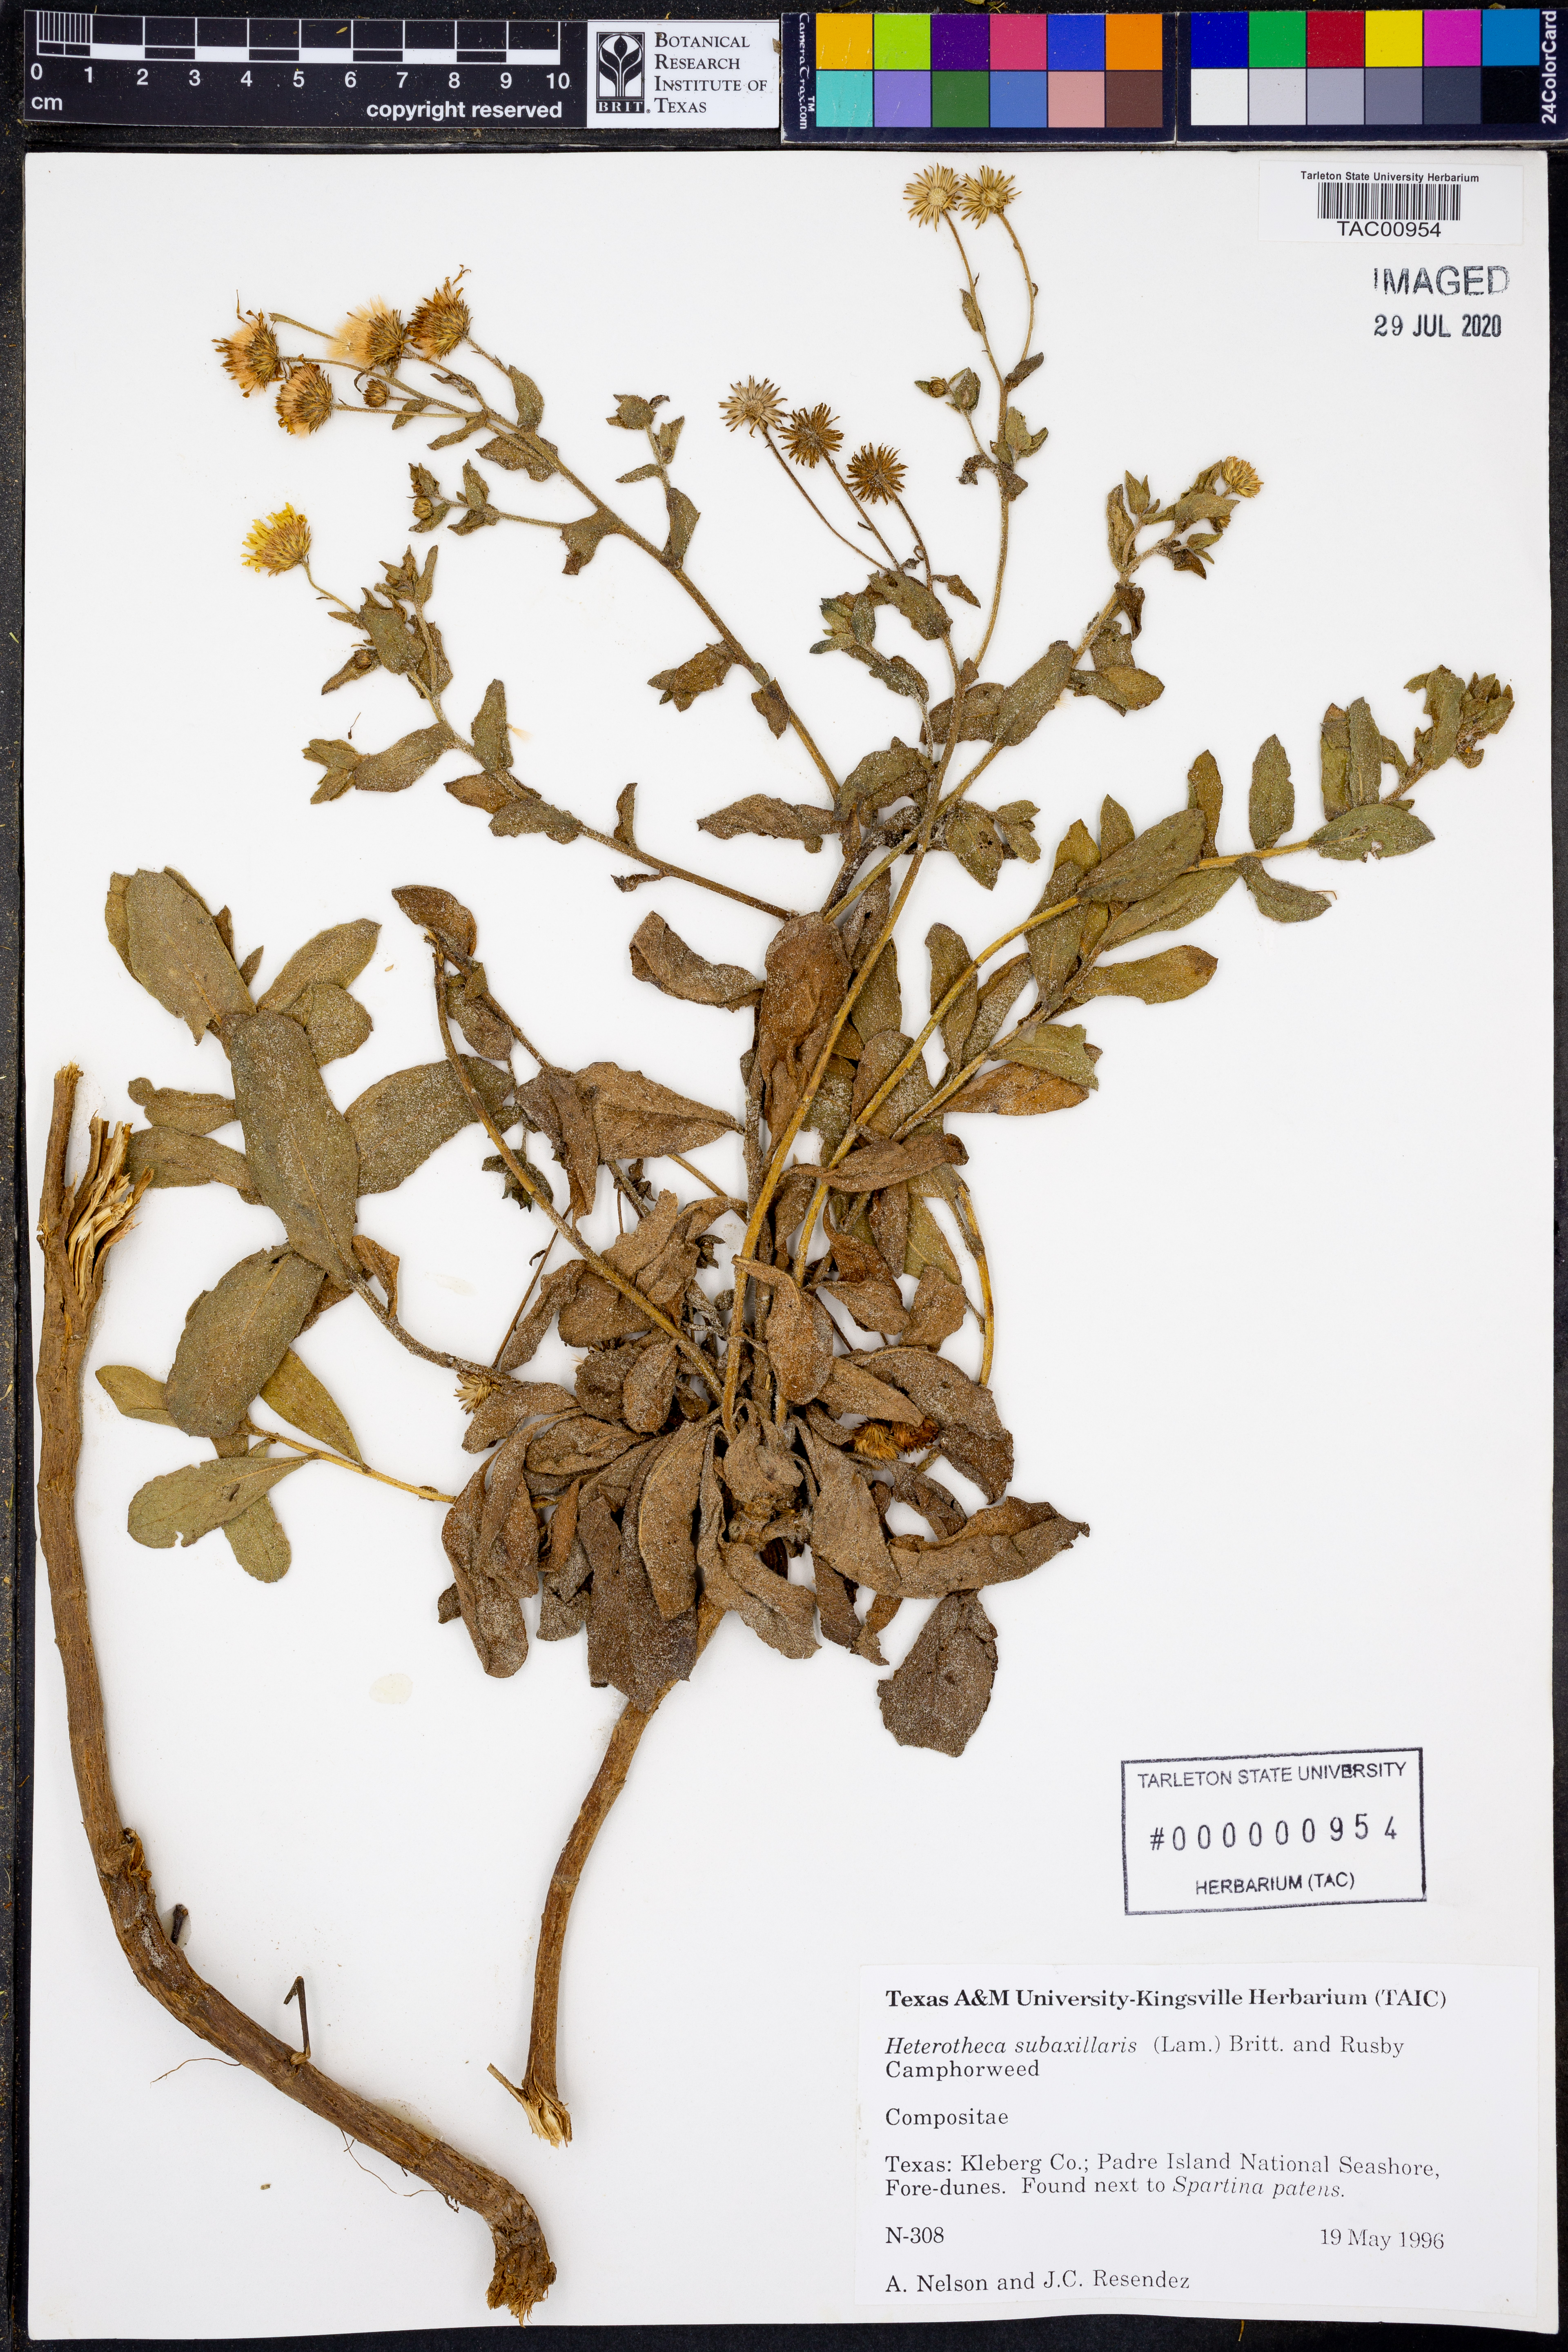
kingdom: Plantae
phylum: Tracheophyta
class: Magnoliopsida
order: Asterales
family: Asteraceae
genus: Heterotheca
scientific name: Heterotheca subaxillaris
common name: Camphorweed
